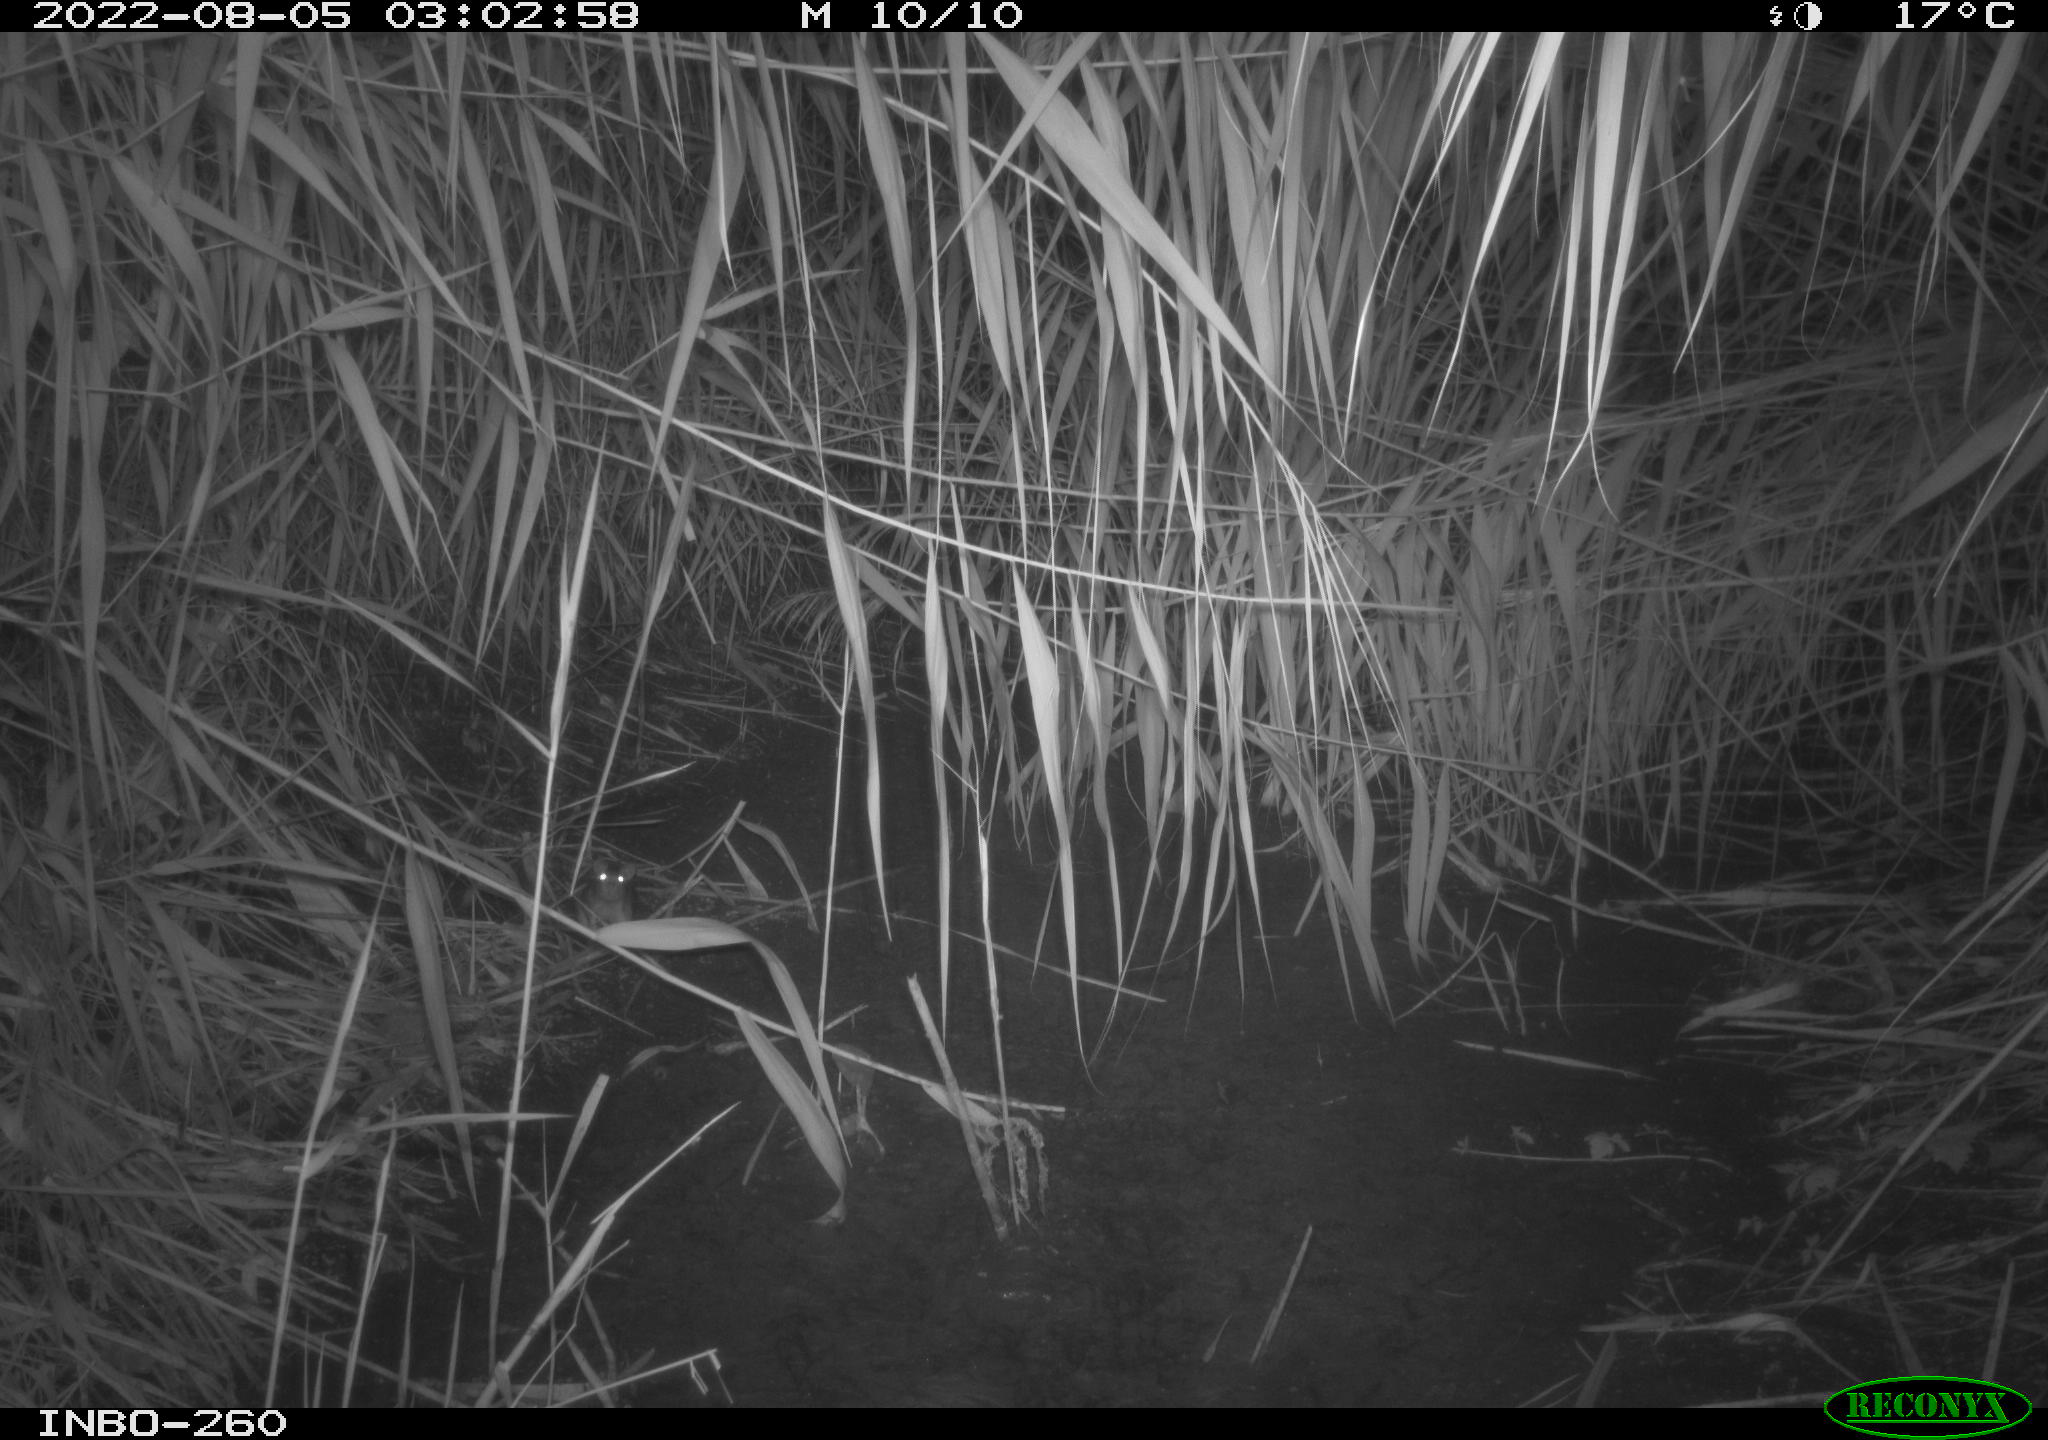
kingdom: Animalia
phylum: Chordata
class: Mammalia
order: Rodentia
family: Muridae
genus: Rattus
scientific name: Rattus norvegicus
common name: Brown rat
